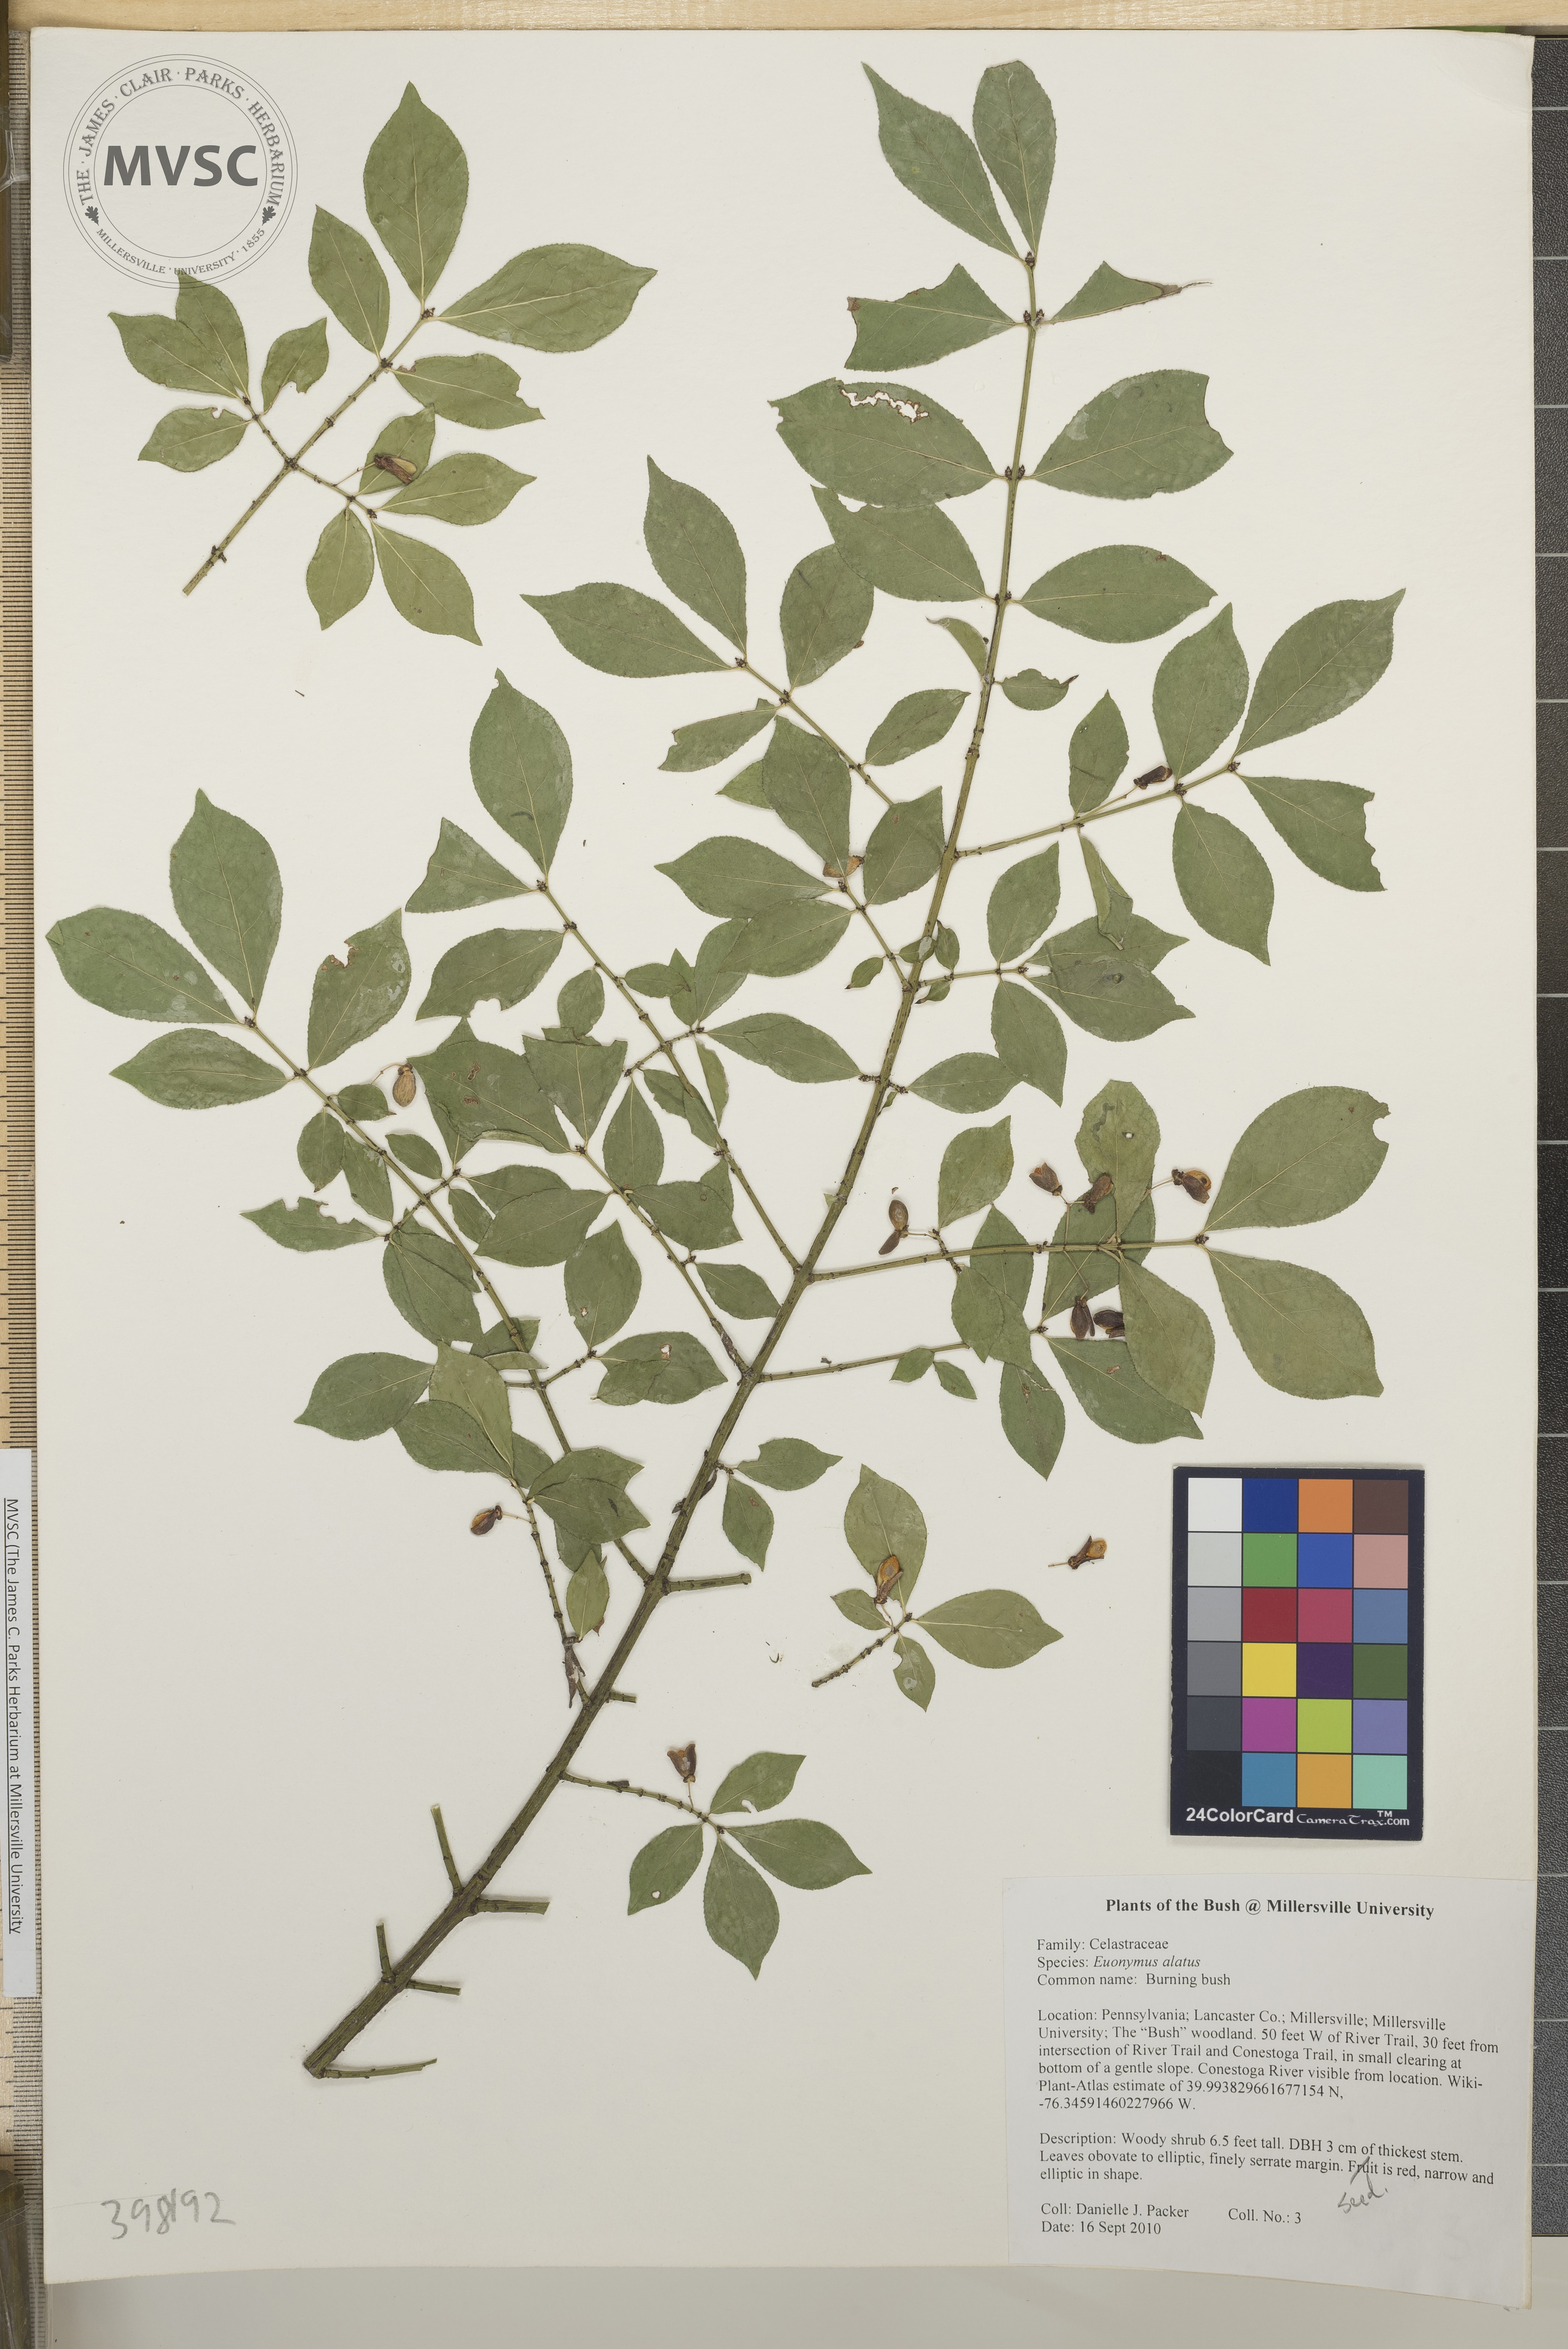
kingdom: Plantae
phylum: Tracheophyta
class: Magnoliopsida
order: Celastrales
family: Celastraceae
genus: Euonymus
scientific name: Euonymus alatus
